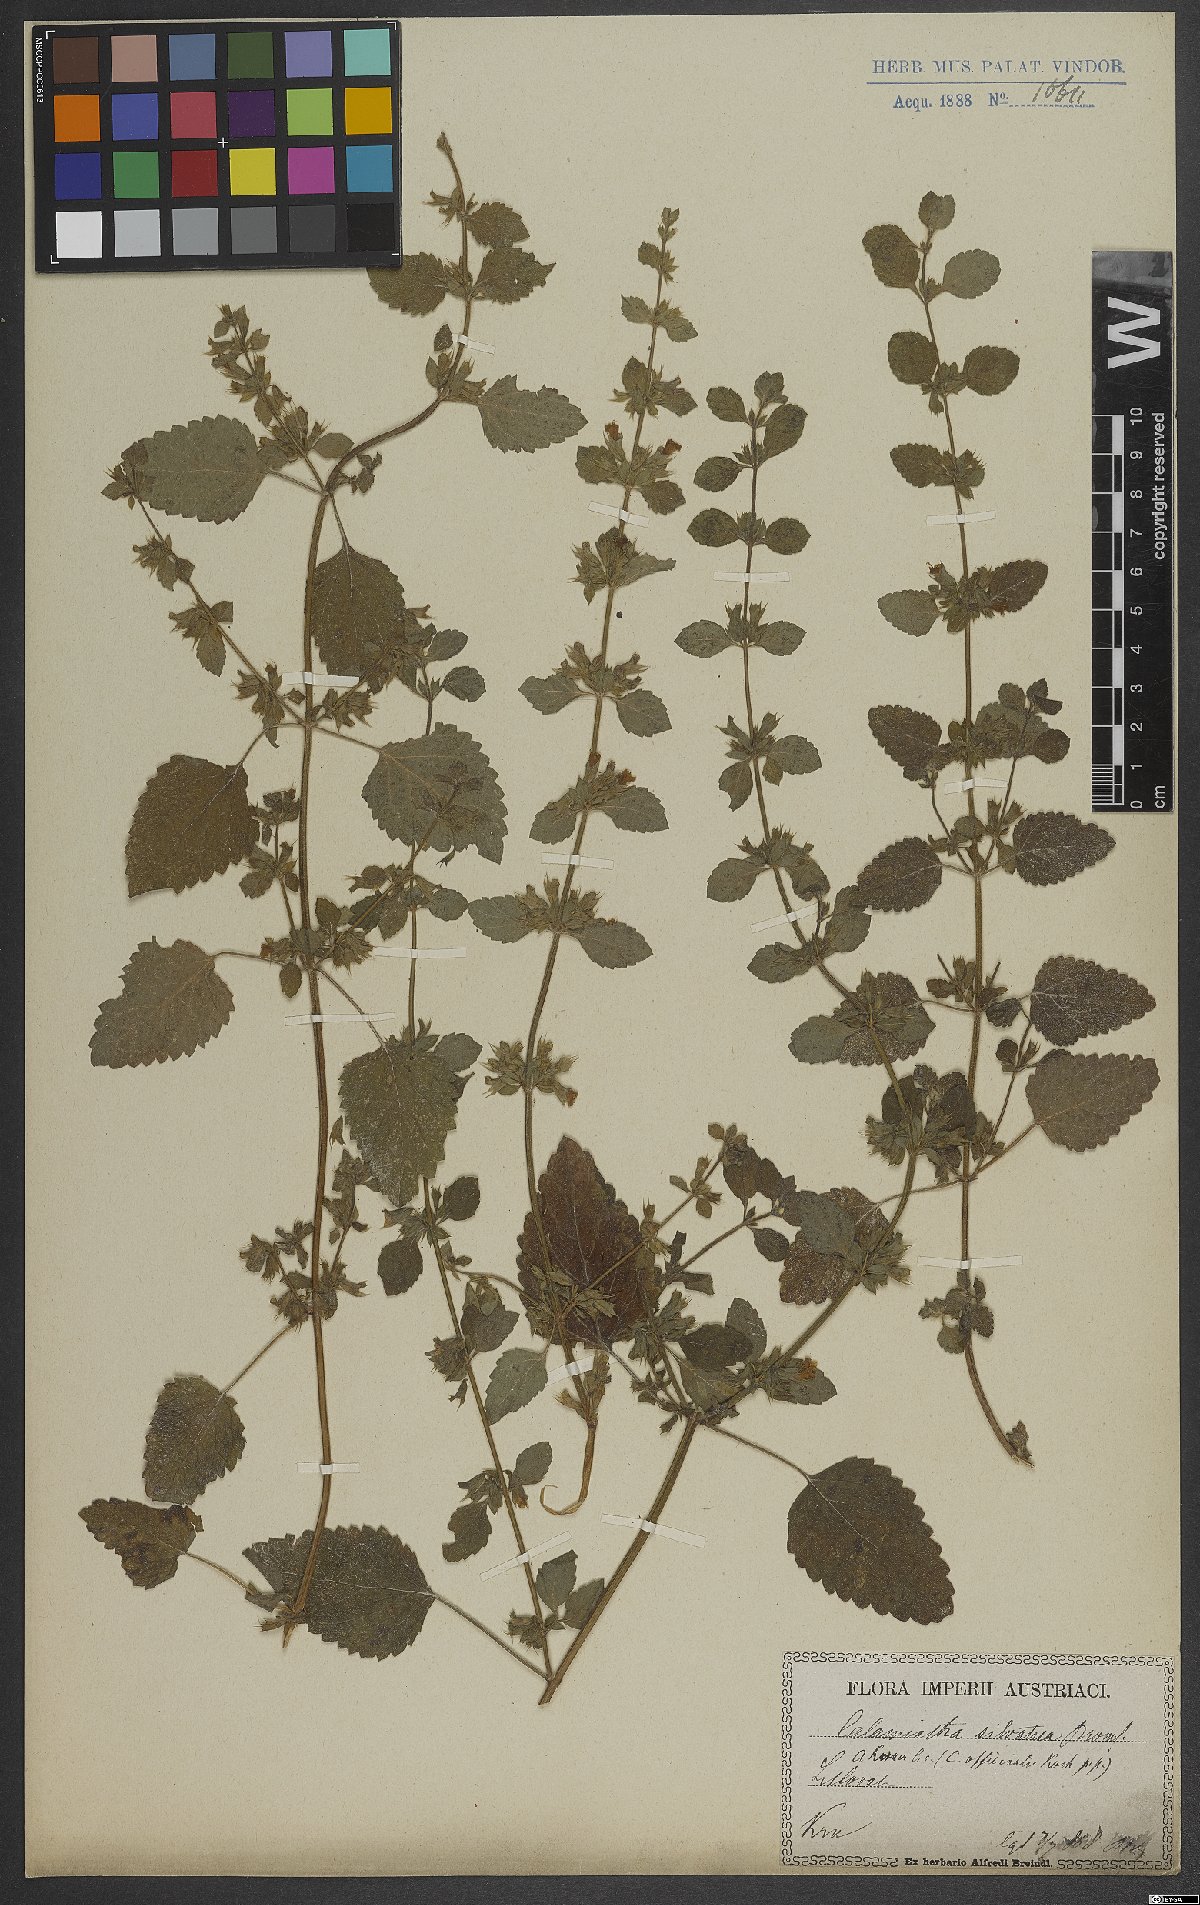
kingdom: Plantae
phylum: Tracheophyta
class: Magnoliopsida
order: Lamiales
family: Lamiaceae
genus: Clinopodium
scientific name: Clinopodium menthifolium
